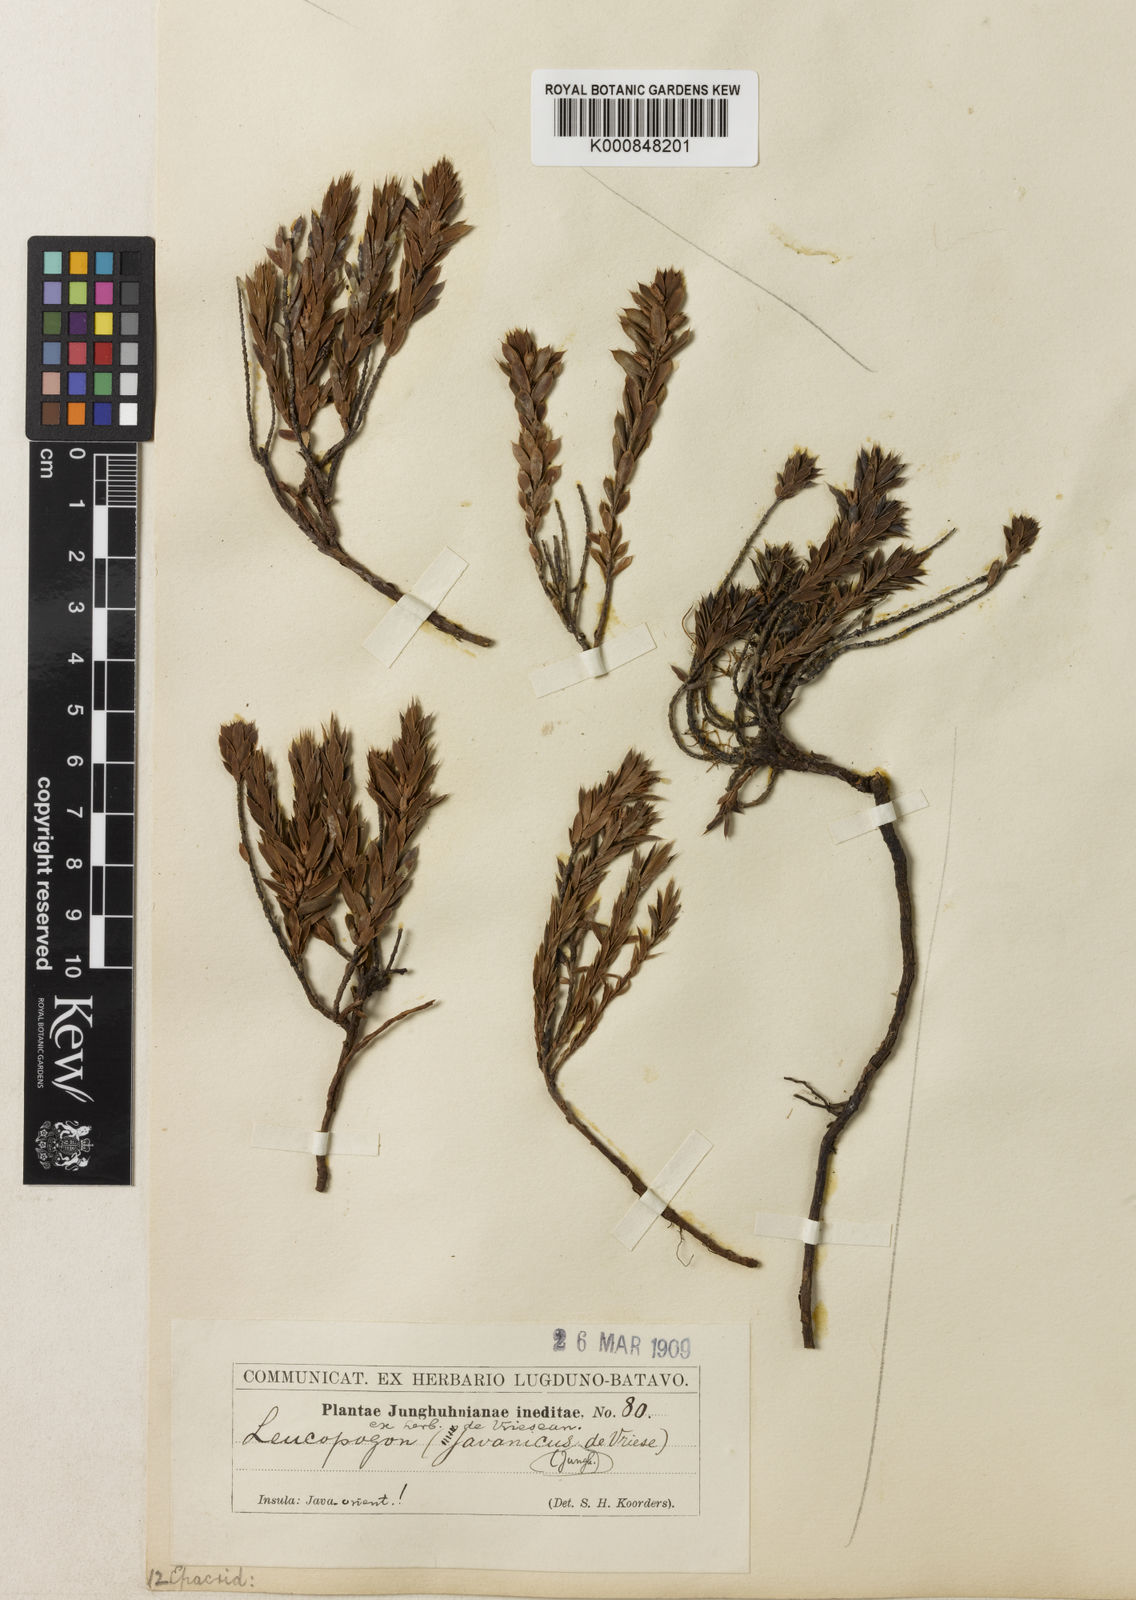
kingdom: Plantae
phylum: Tracheophyta
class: Magnoliopsida
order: Ericales
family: Ericaceae
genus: Styphelia
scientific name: Styphelia
